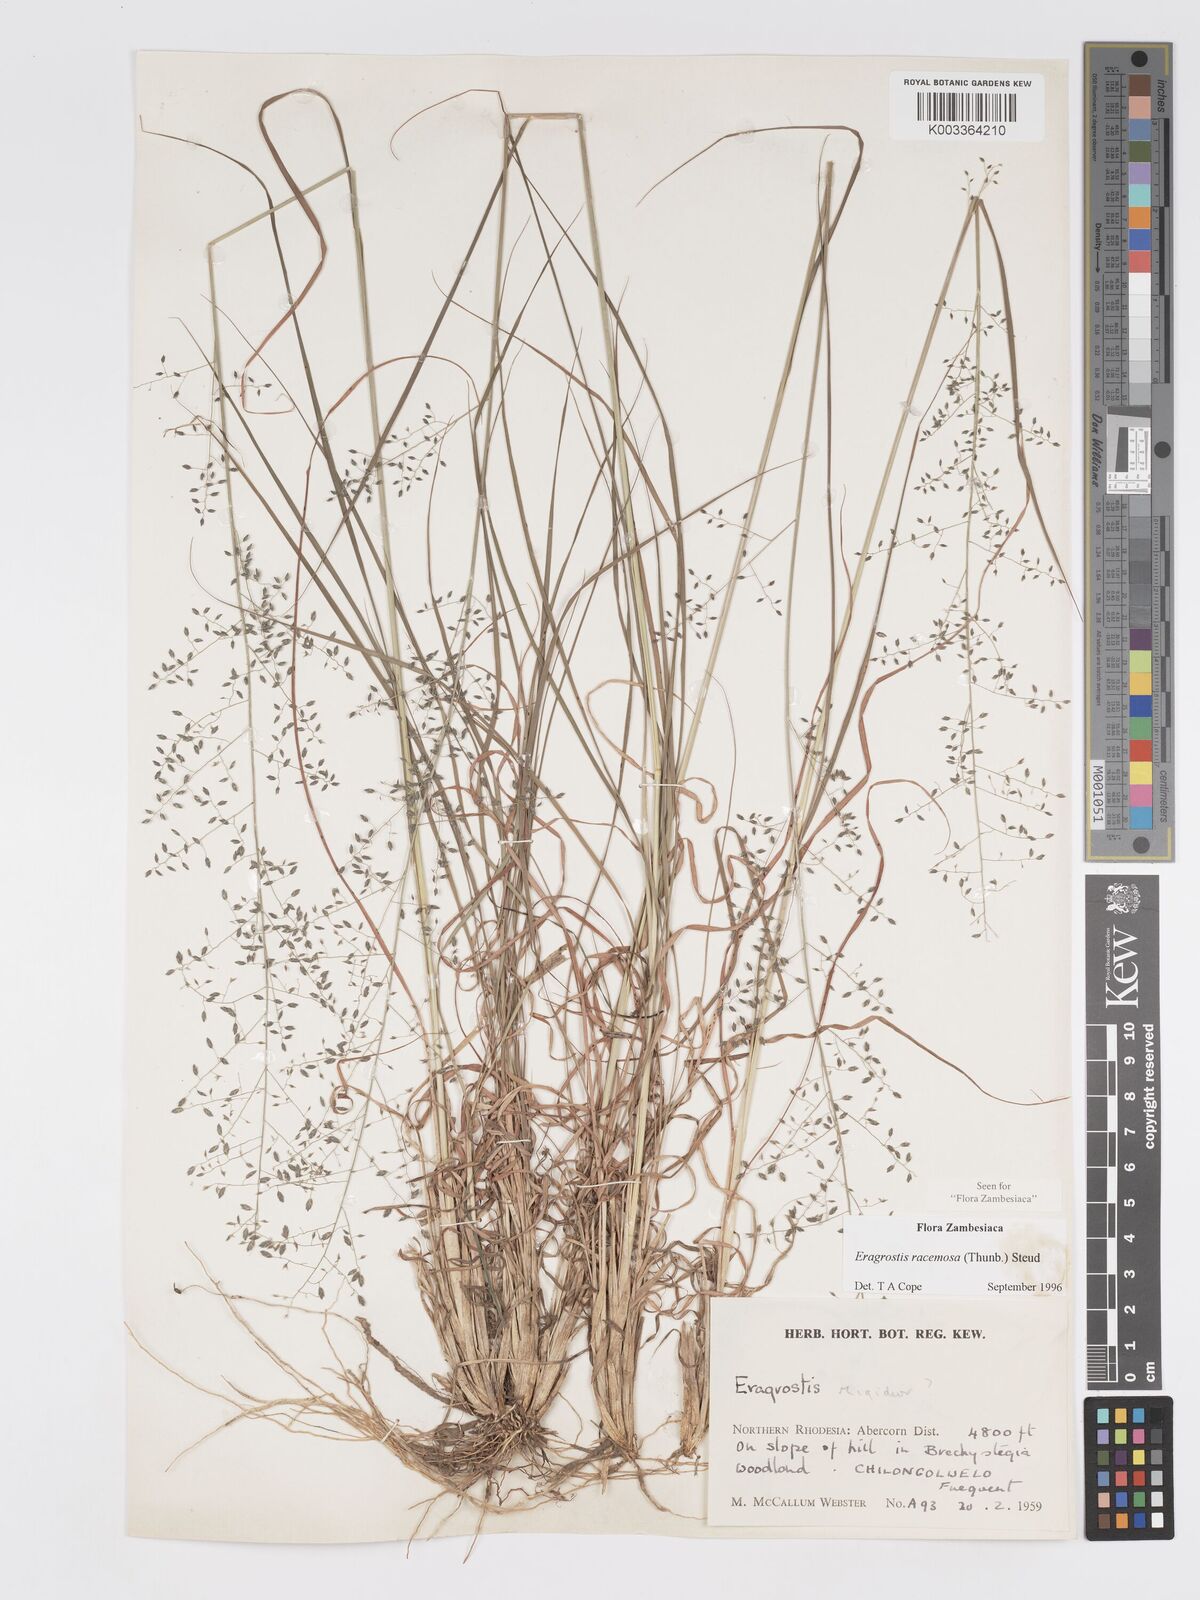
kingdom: Plantae
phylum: Tracheophyta
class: Liliopsida
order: Poales
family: Poaceae
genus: Eragrostis
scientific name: Eragrostis racemosa
